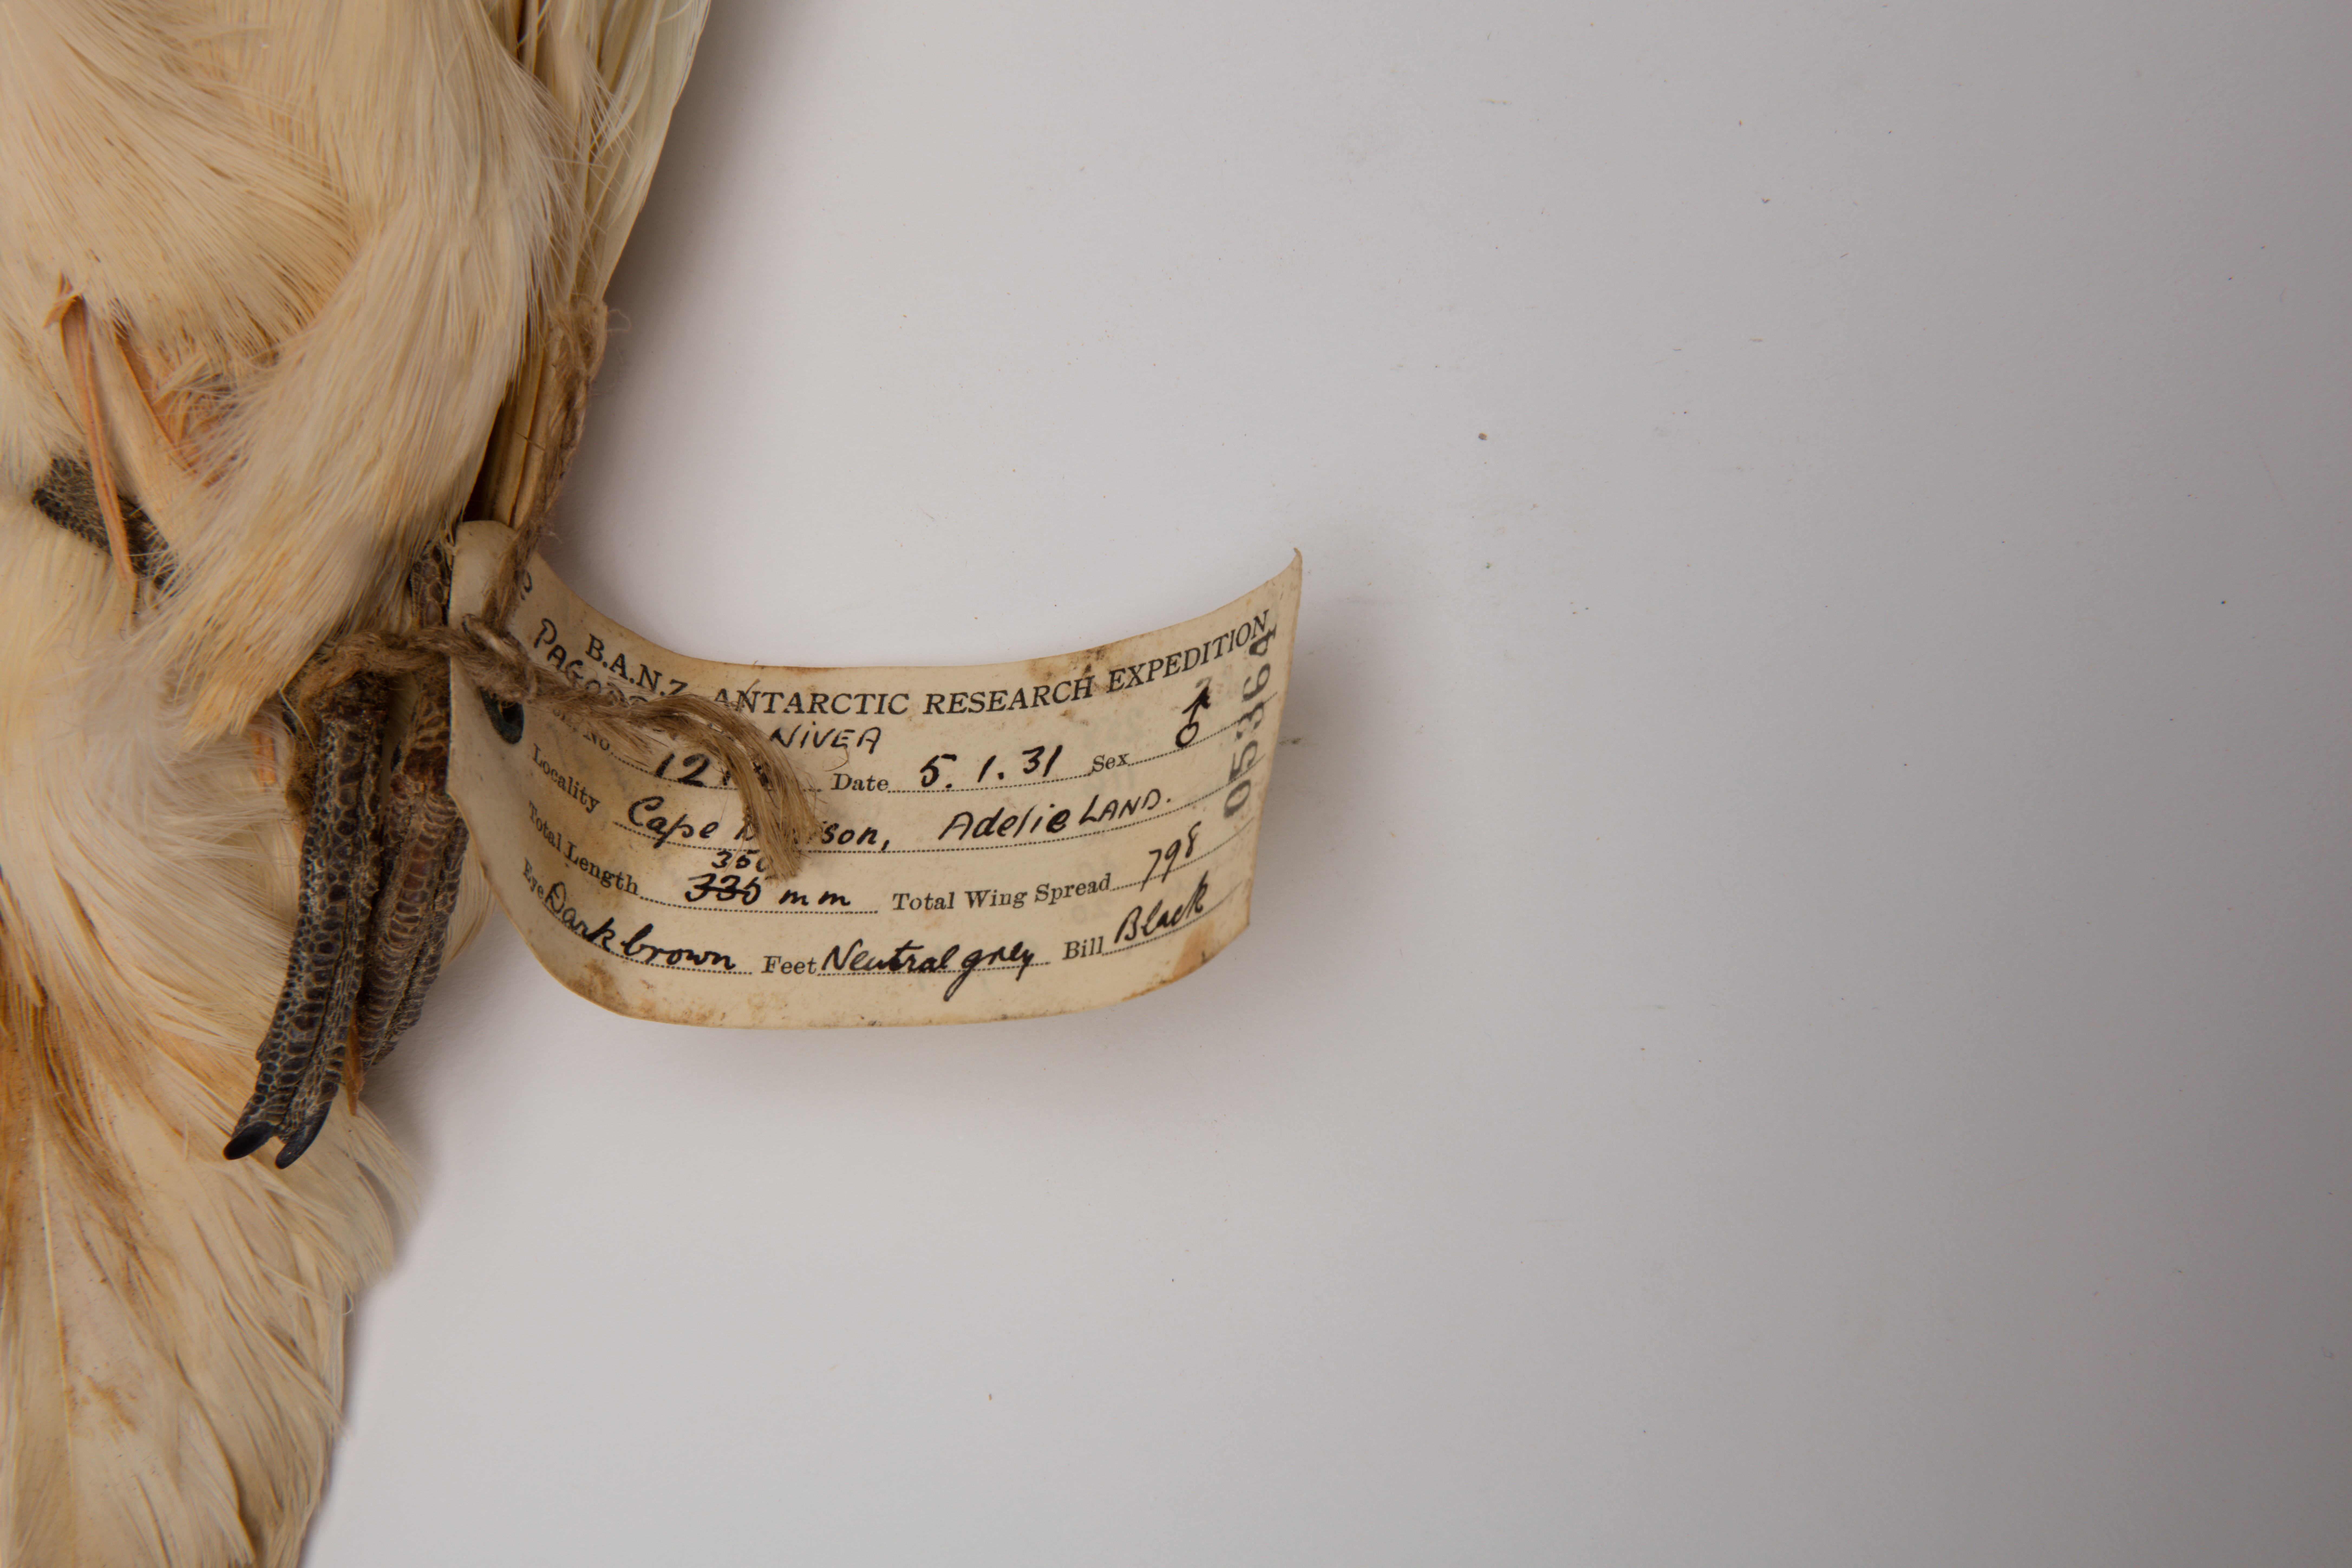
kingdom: Animalia
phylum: Chordata
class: Aves
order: Procellariiformes
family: Procellariidae
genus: Pagodroma
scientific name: Pagodroma nivea
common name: Snow petrel
